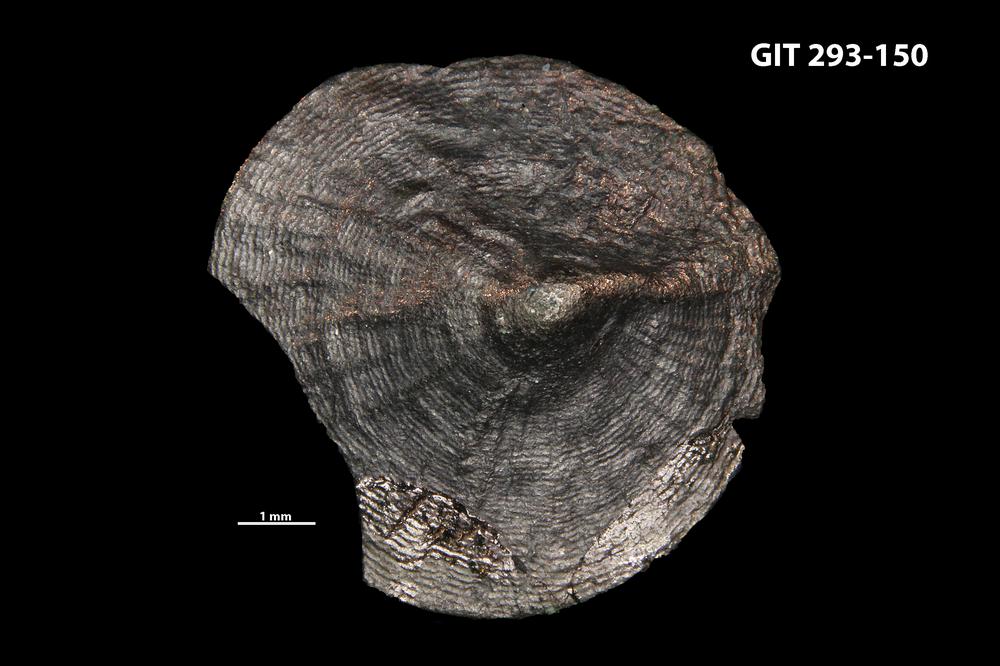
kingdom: Animalia
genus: Estoniadiscus
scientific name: Estoniadiscus
